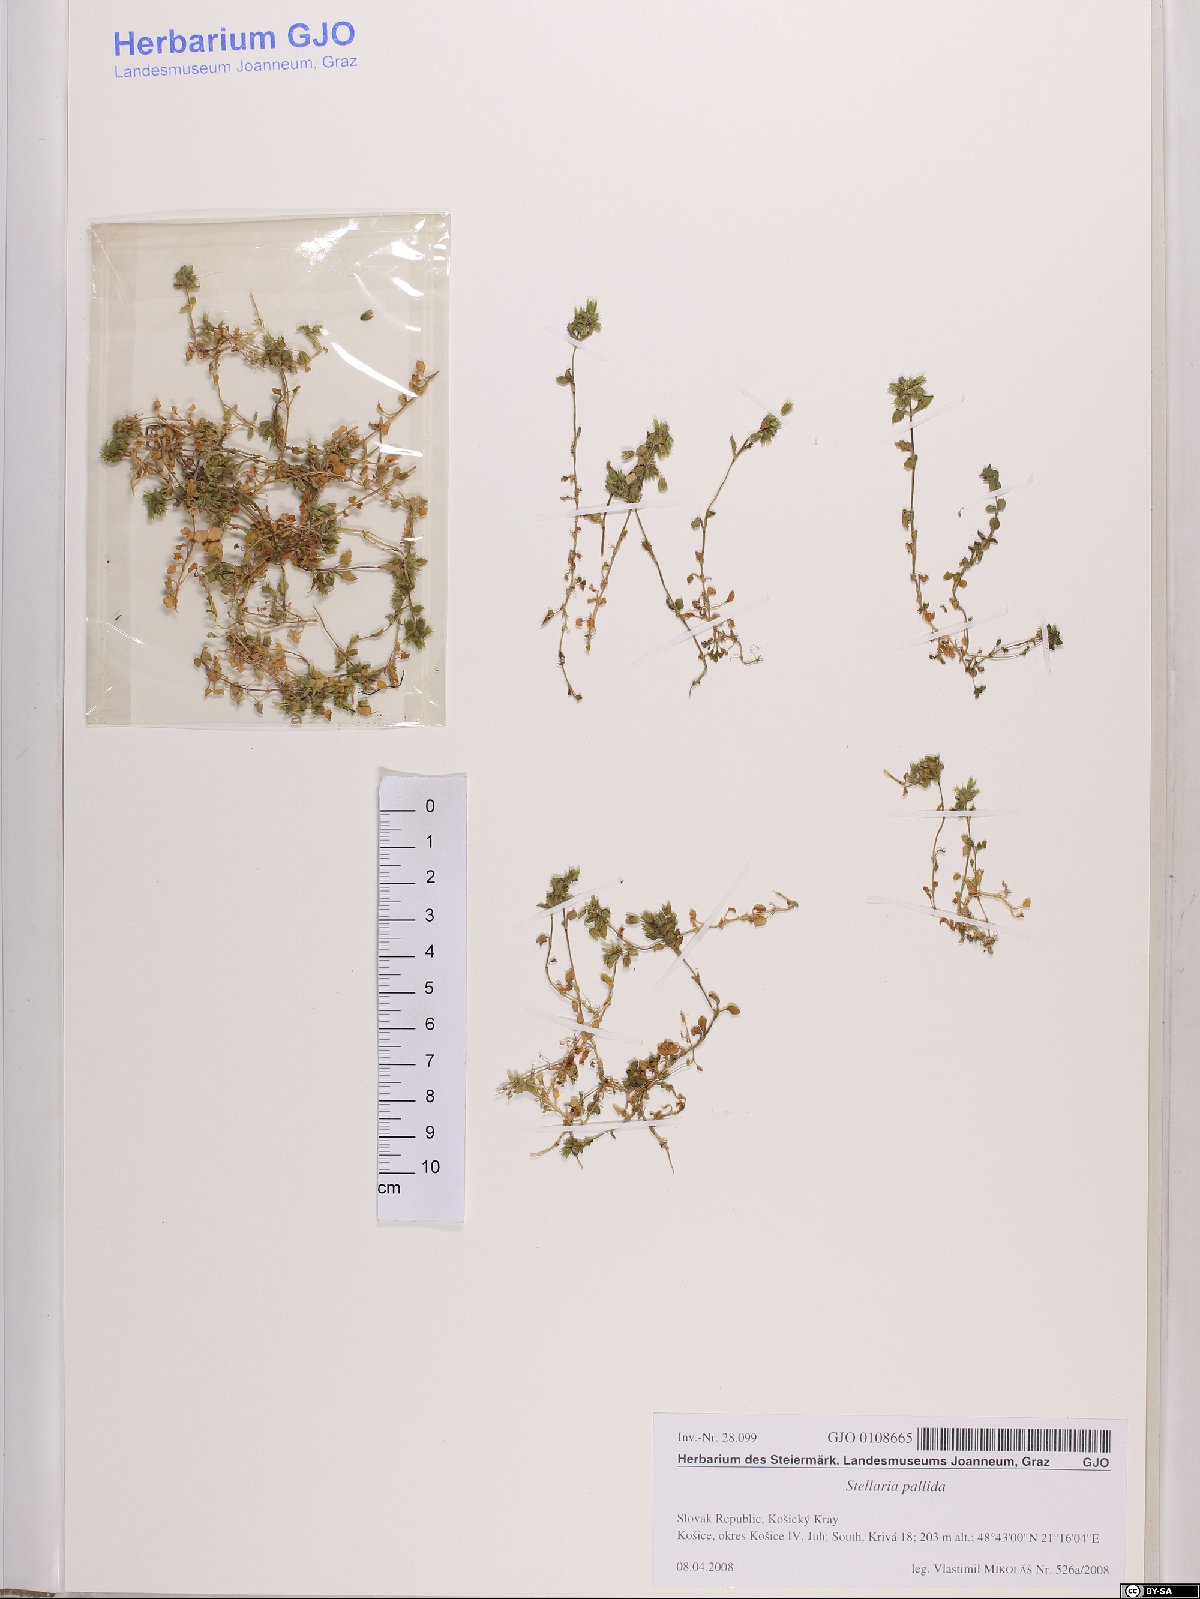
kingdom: Plantae
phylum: Tracheophyta
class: Magnoliopsida
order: Caryophyllales
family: Caryophyllaceae
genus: Stellaria
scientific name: Stellaria apetala
